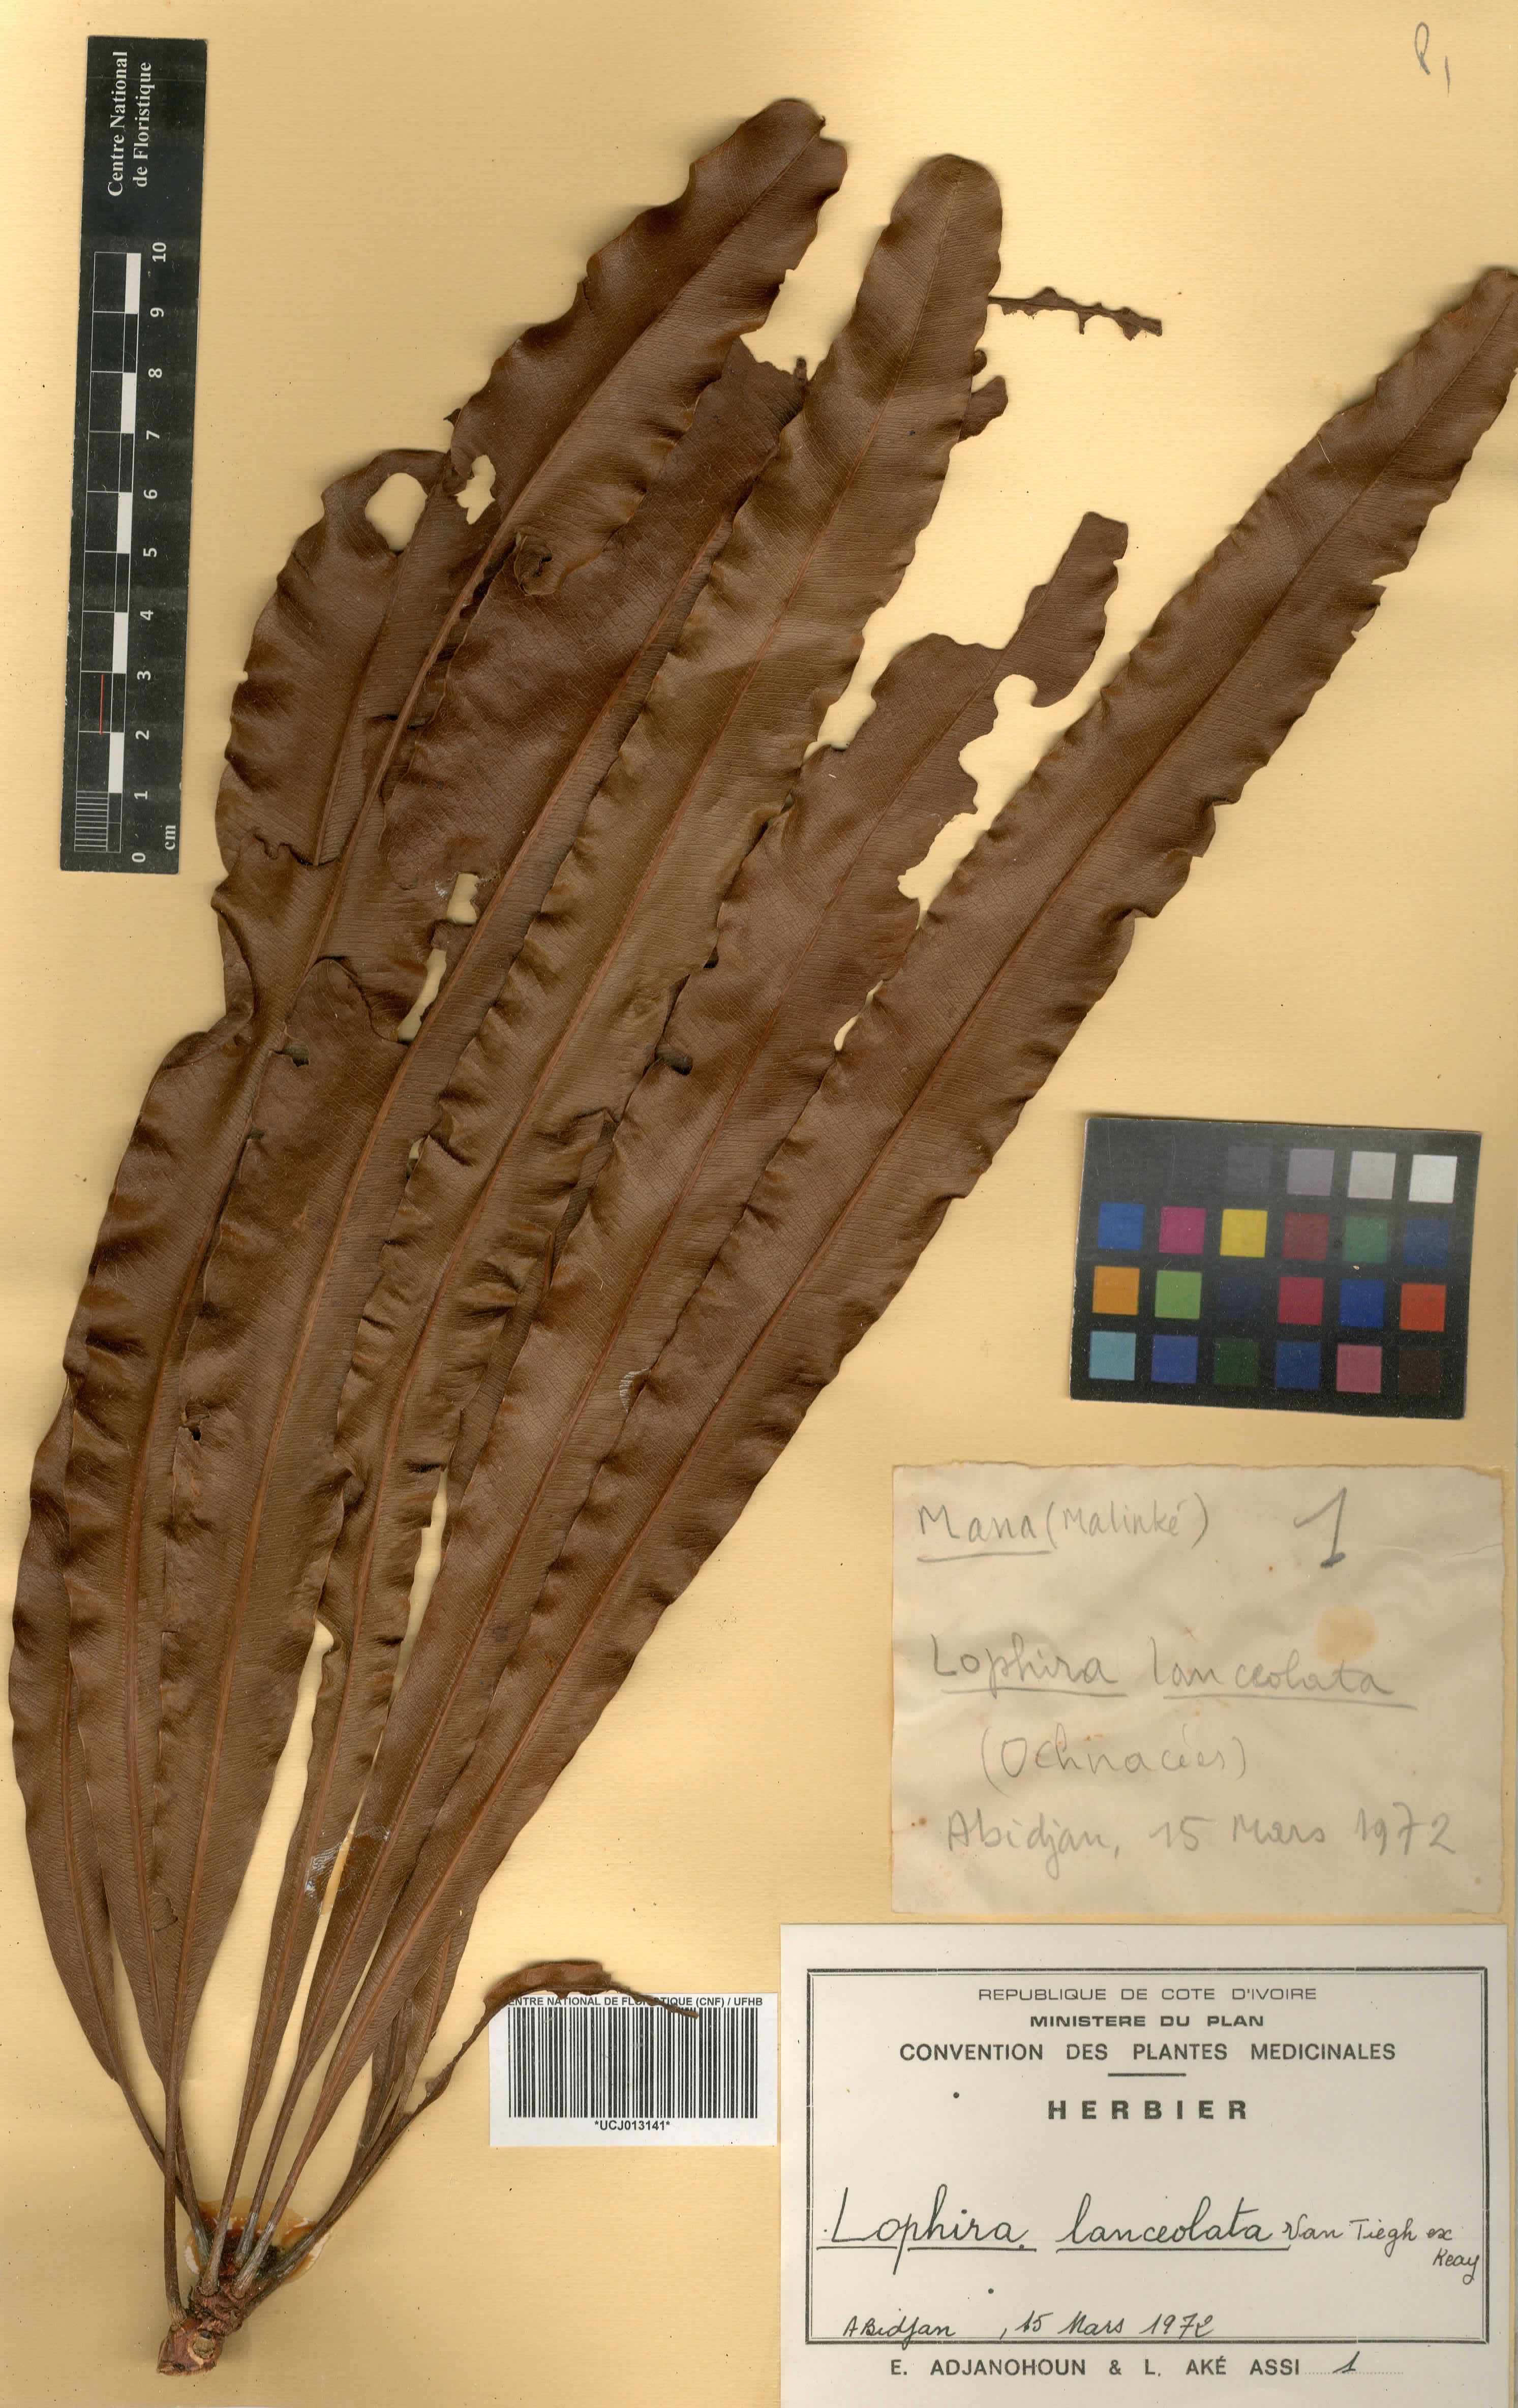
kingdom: Plantae
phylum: Tracheophyta
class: Magnoliopsida
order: Malpighiales
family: Ochnaceae
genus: Lophira
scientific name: Lophira lanceolata
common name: Dwarf red ironwood
